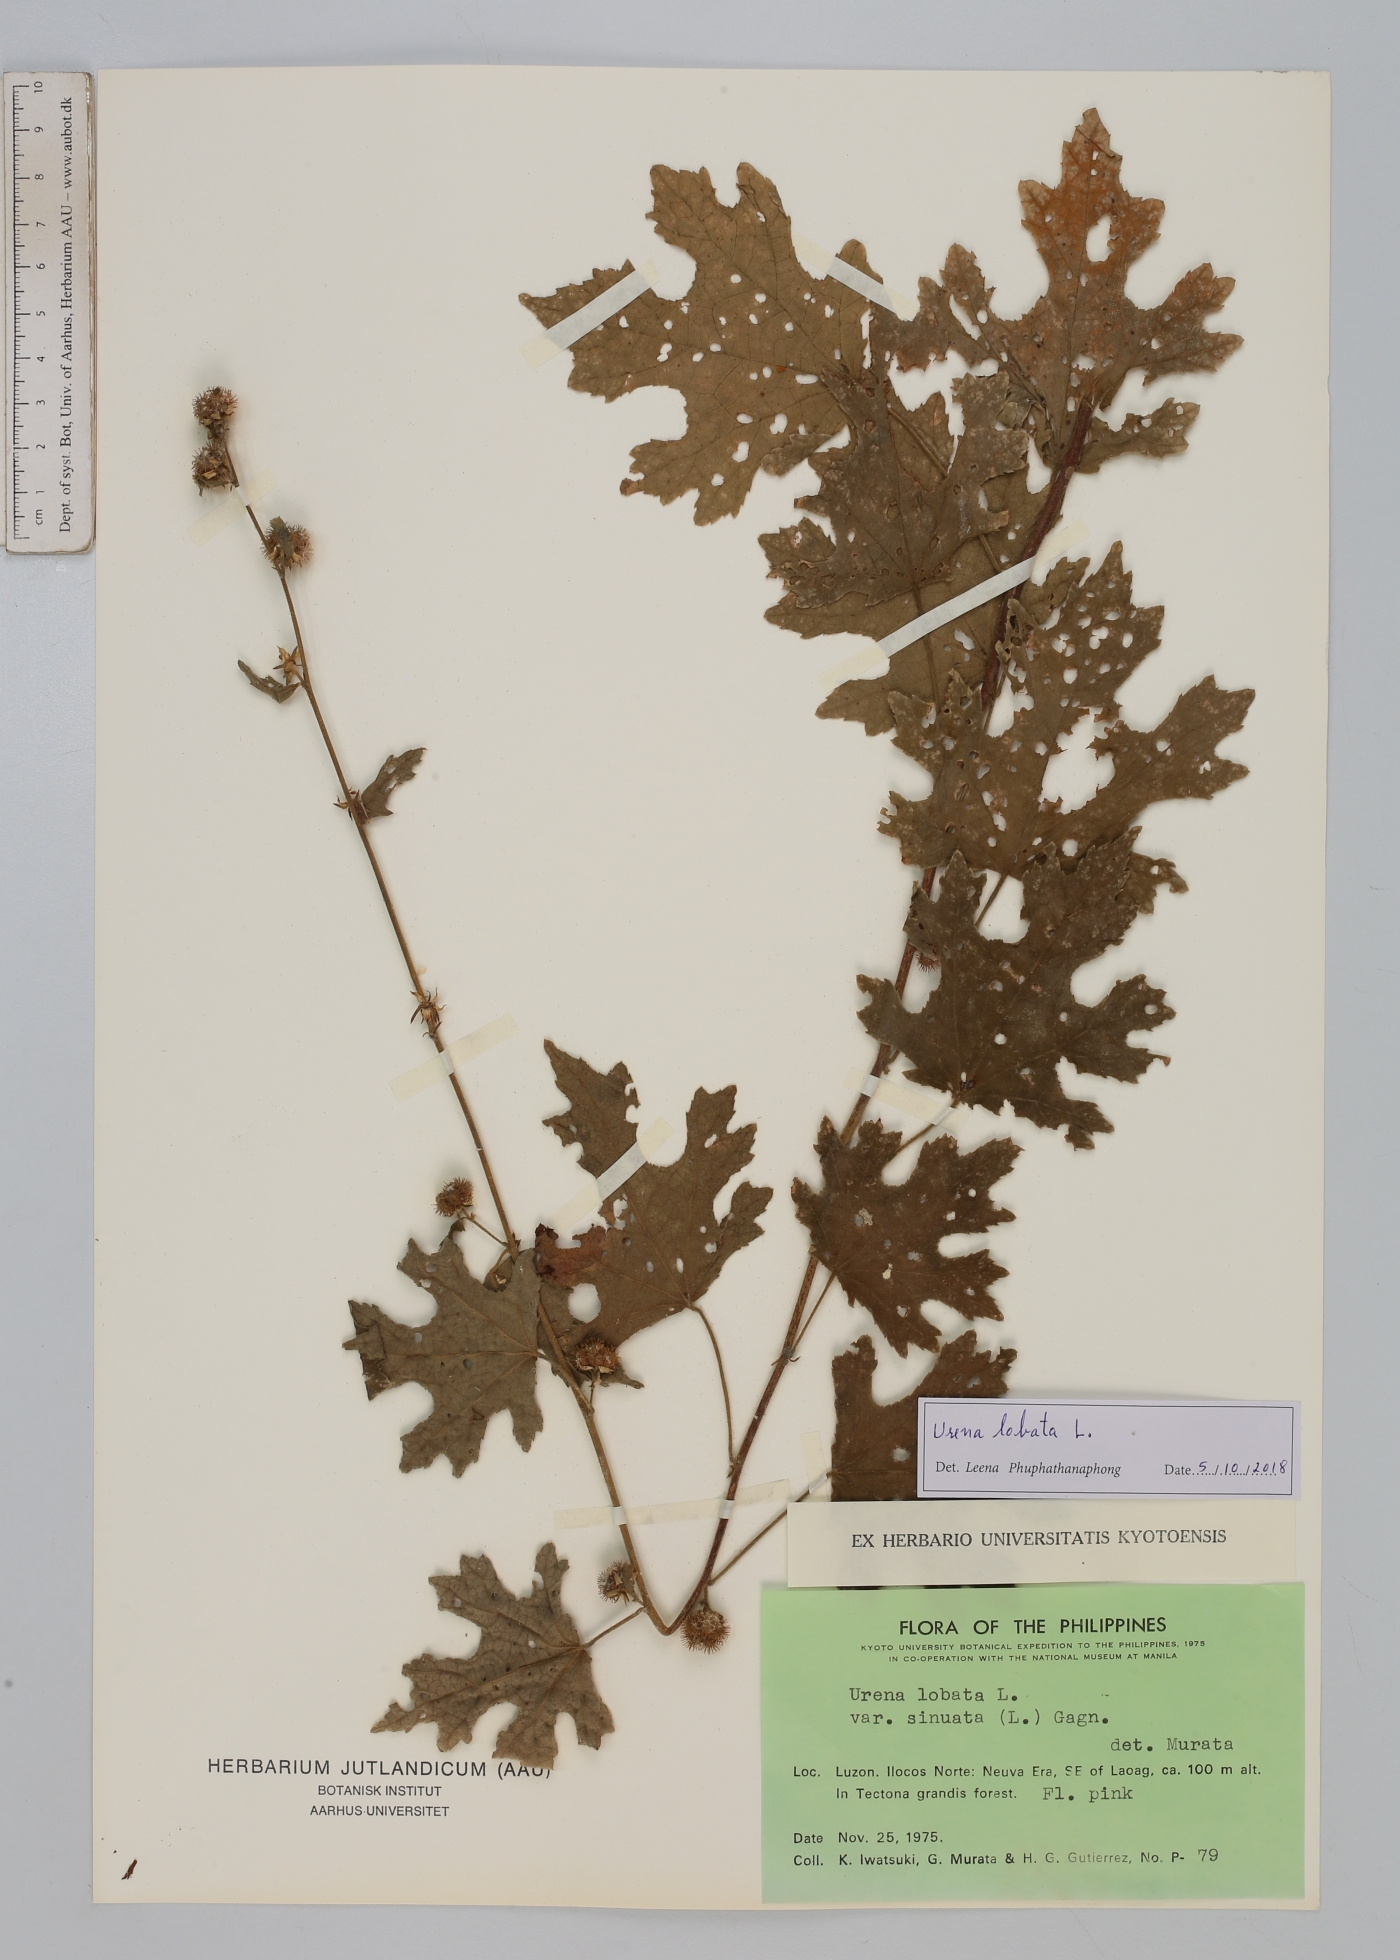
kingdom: Plantae
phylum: Tracheophyta
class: Magnoliopsida
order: Malvales
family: Malvaceae
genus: Urena
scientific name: Urena lobata
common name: Caesarweed
